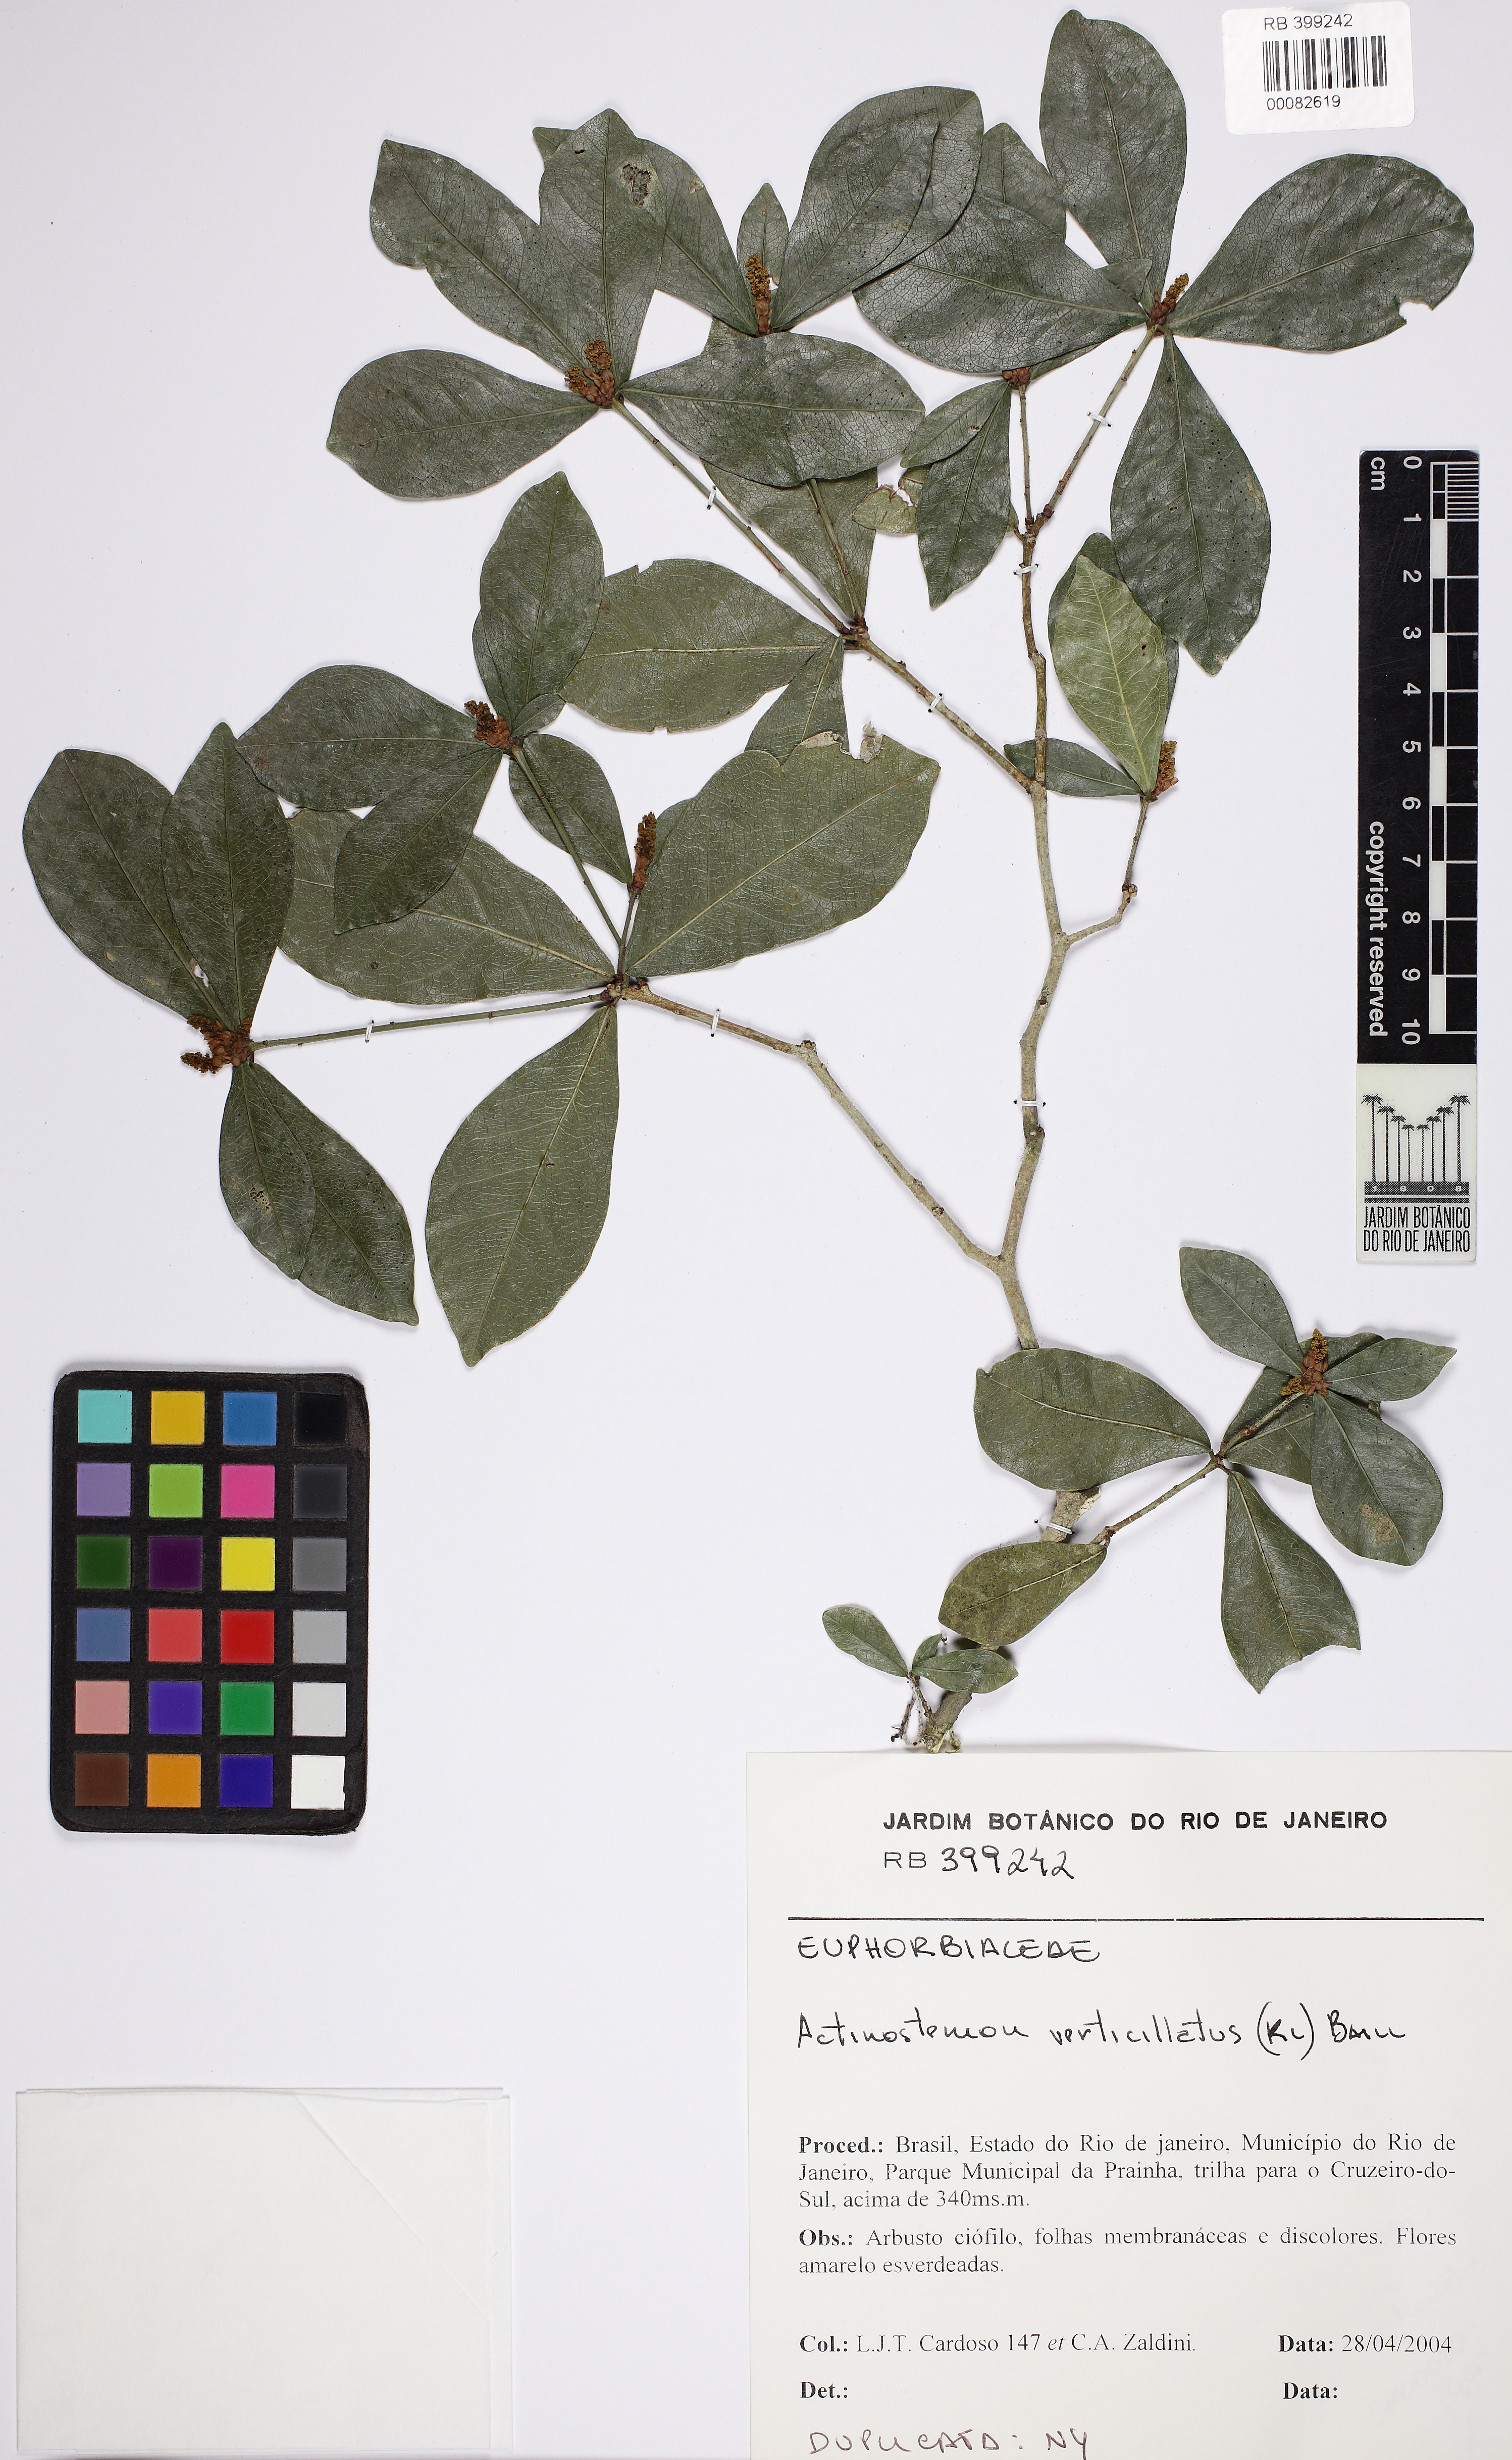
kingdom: Plantae
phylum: Tracheophyta
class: Magnoliopsida
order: Malpighiales
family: Euphorbiaceae
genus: Actinostemon
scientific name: Actinostemon verticillatus
